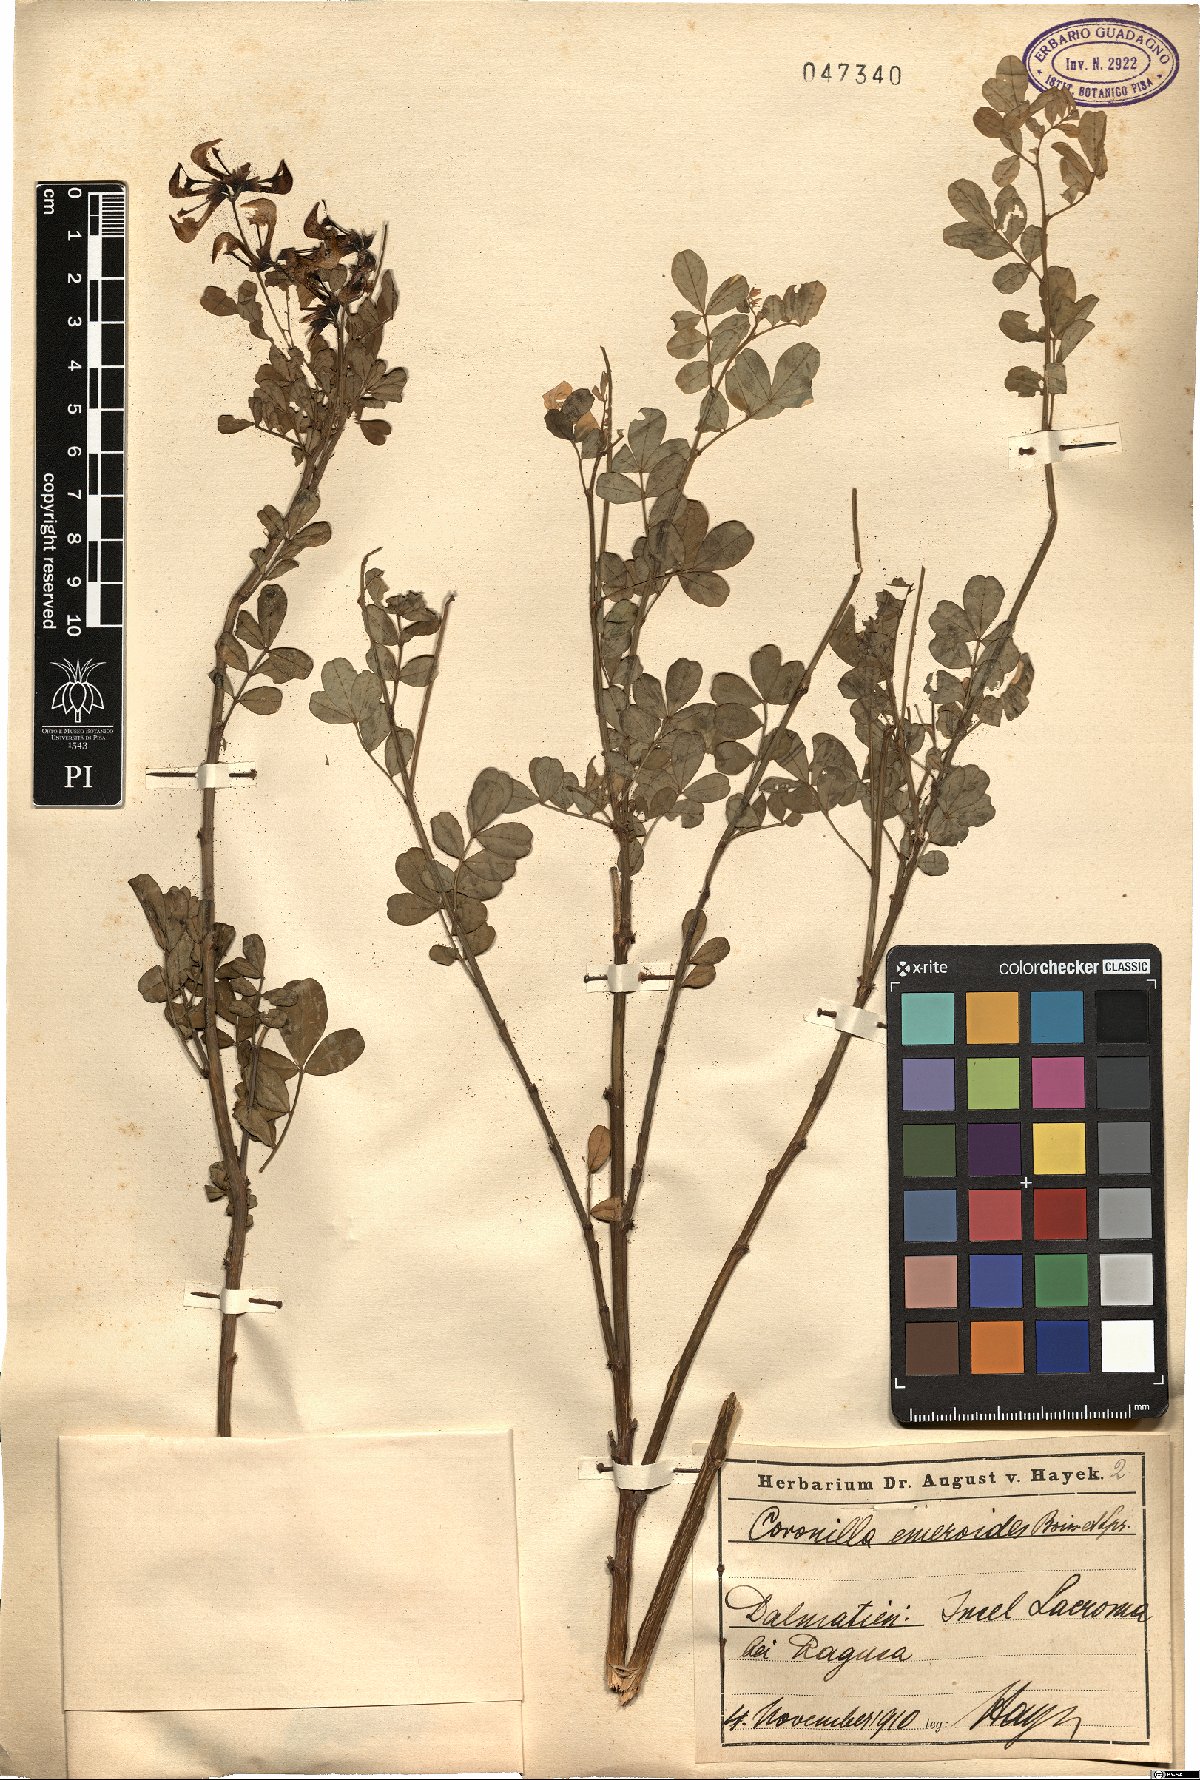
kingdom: Plantae
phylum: Tracheophyta
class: Magnoliopsida
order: Fabales
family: Fabaceae
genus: Hippocrepis
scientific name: Hippocrepis emerus
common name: Scorpion senna
